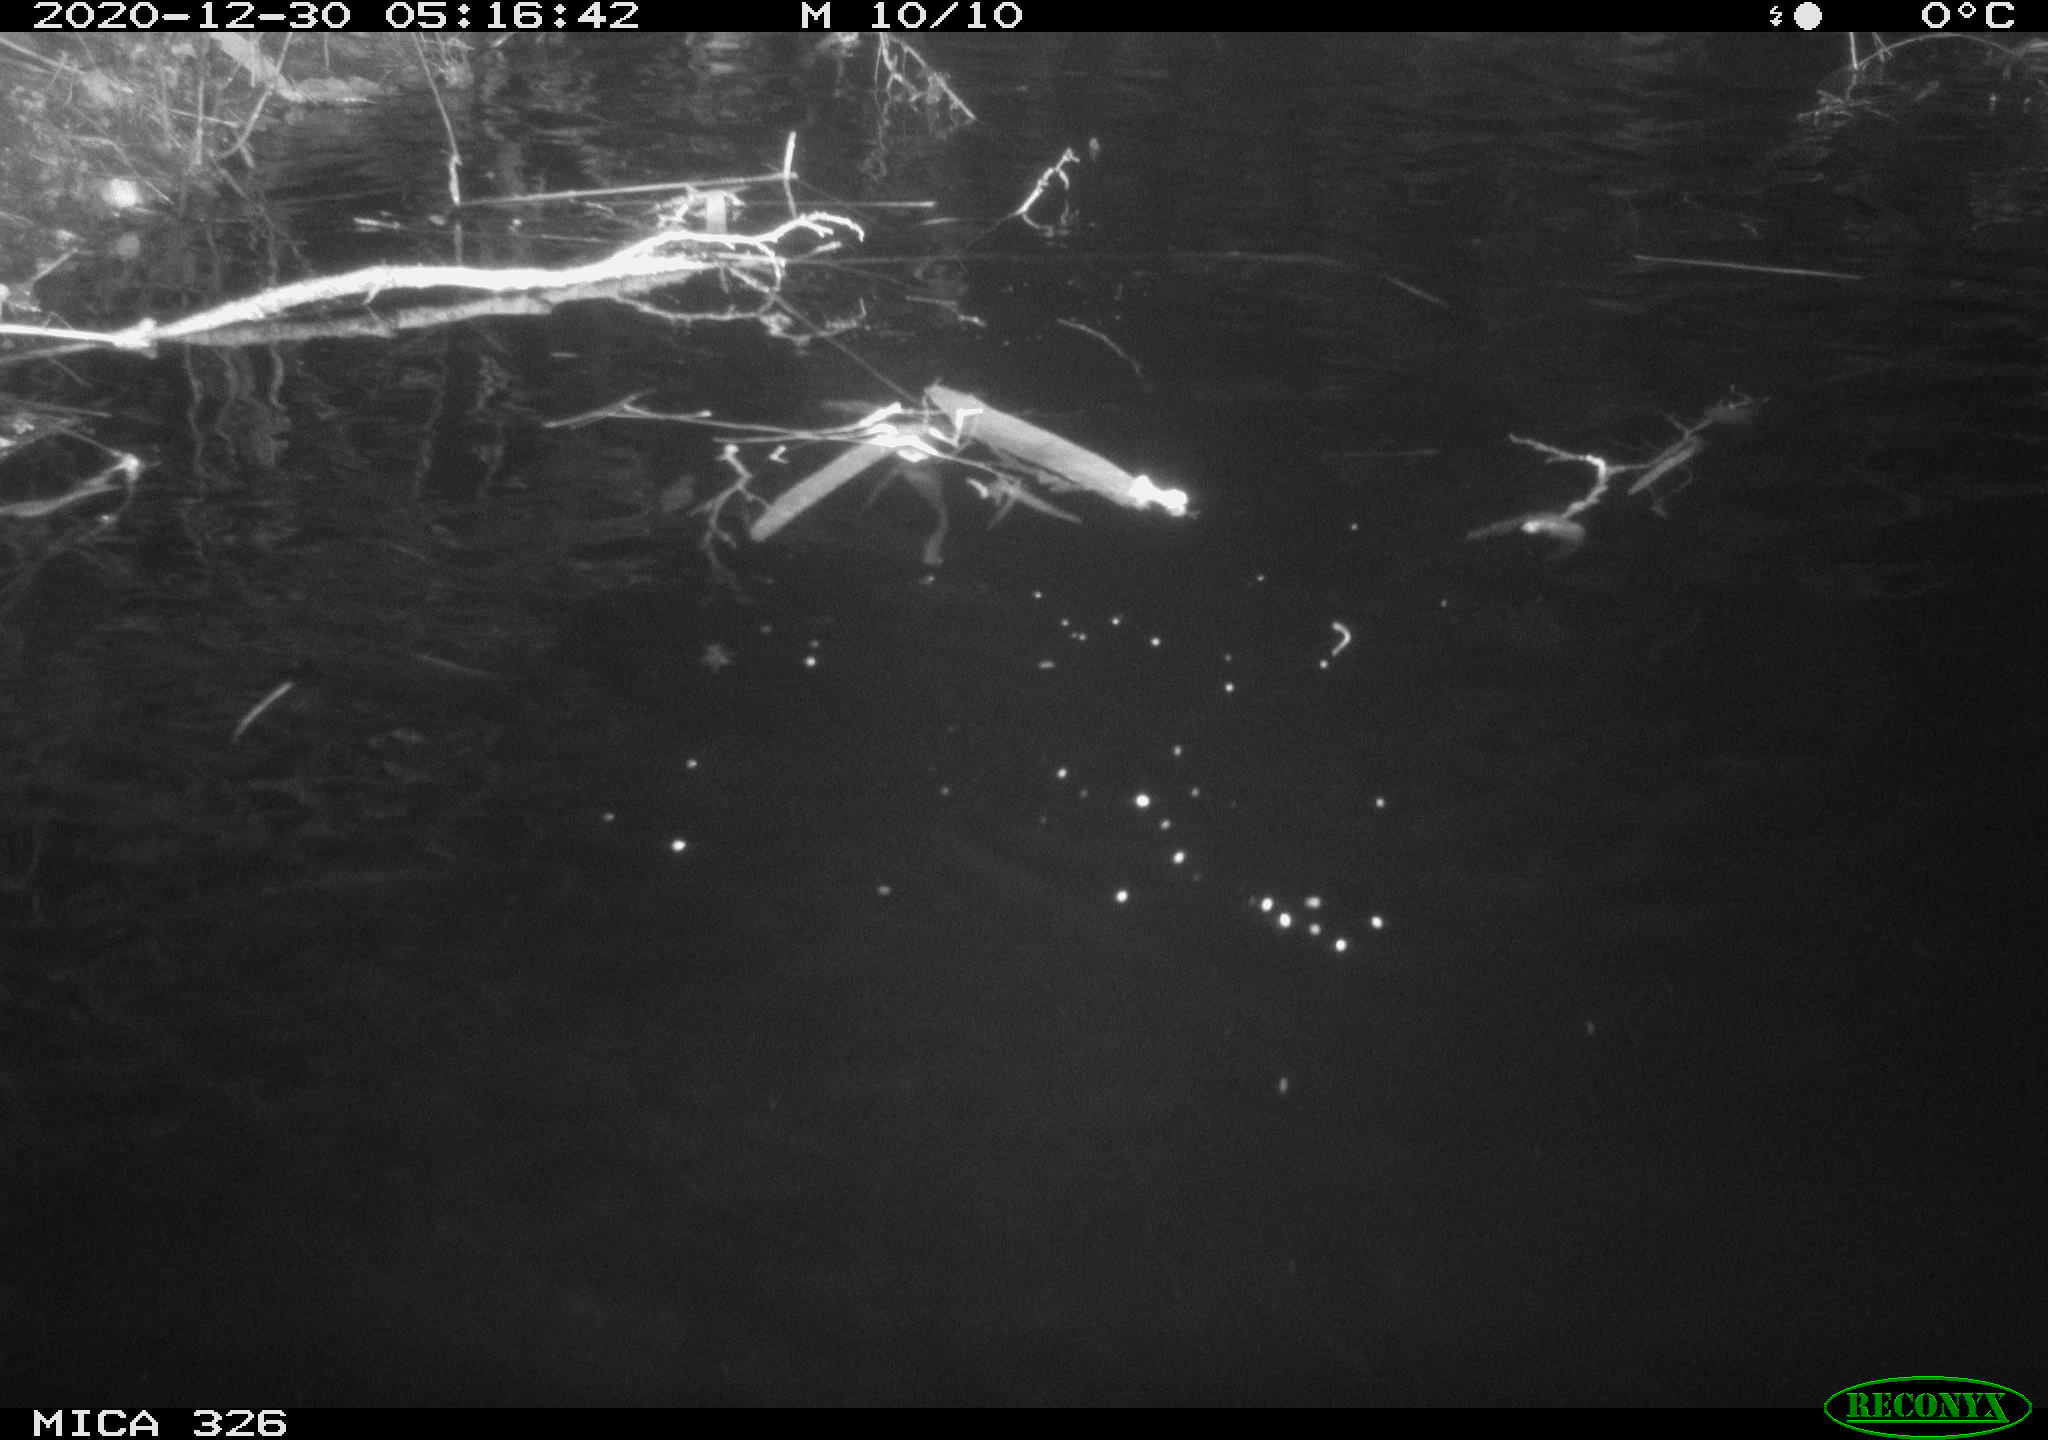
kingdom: Animalia
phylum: Chordata
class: Mammalia
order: Rodentia
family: Myocastoridae
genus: Myocastor
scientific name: Myocastor coypus
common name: Coypu
